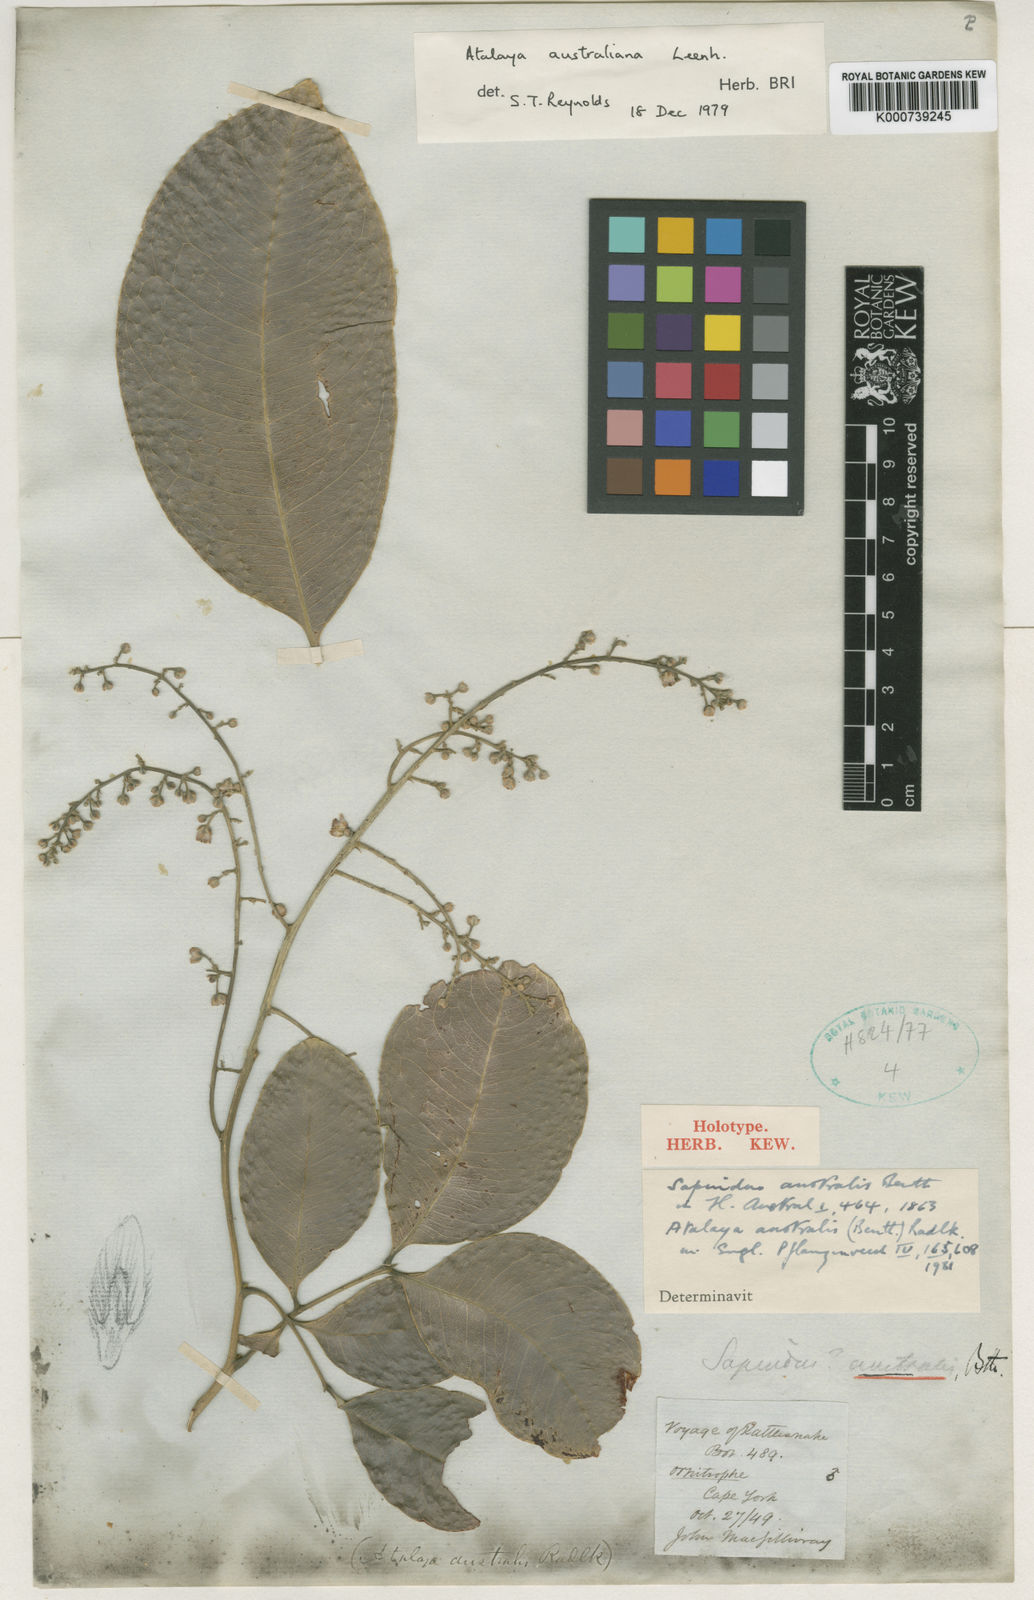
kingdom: Plantae
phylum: Tracheophyta
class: Magnoliopsida
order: Sapindales
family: Sapindaceae
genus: Atalaya
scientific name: Atalaya australiana
